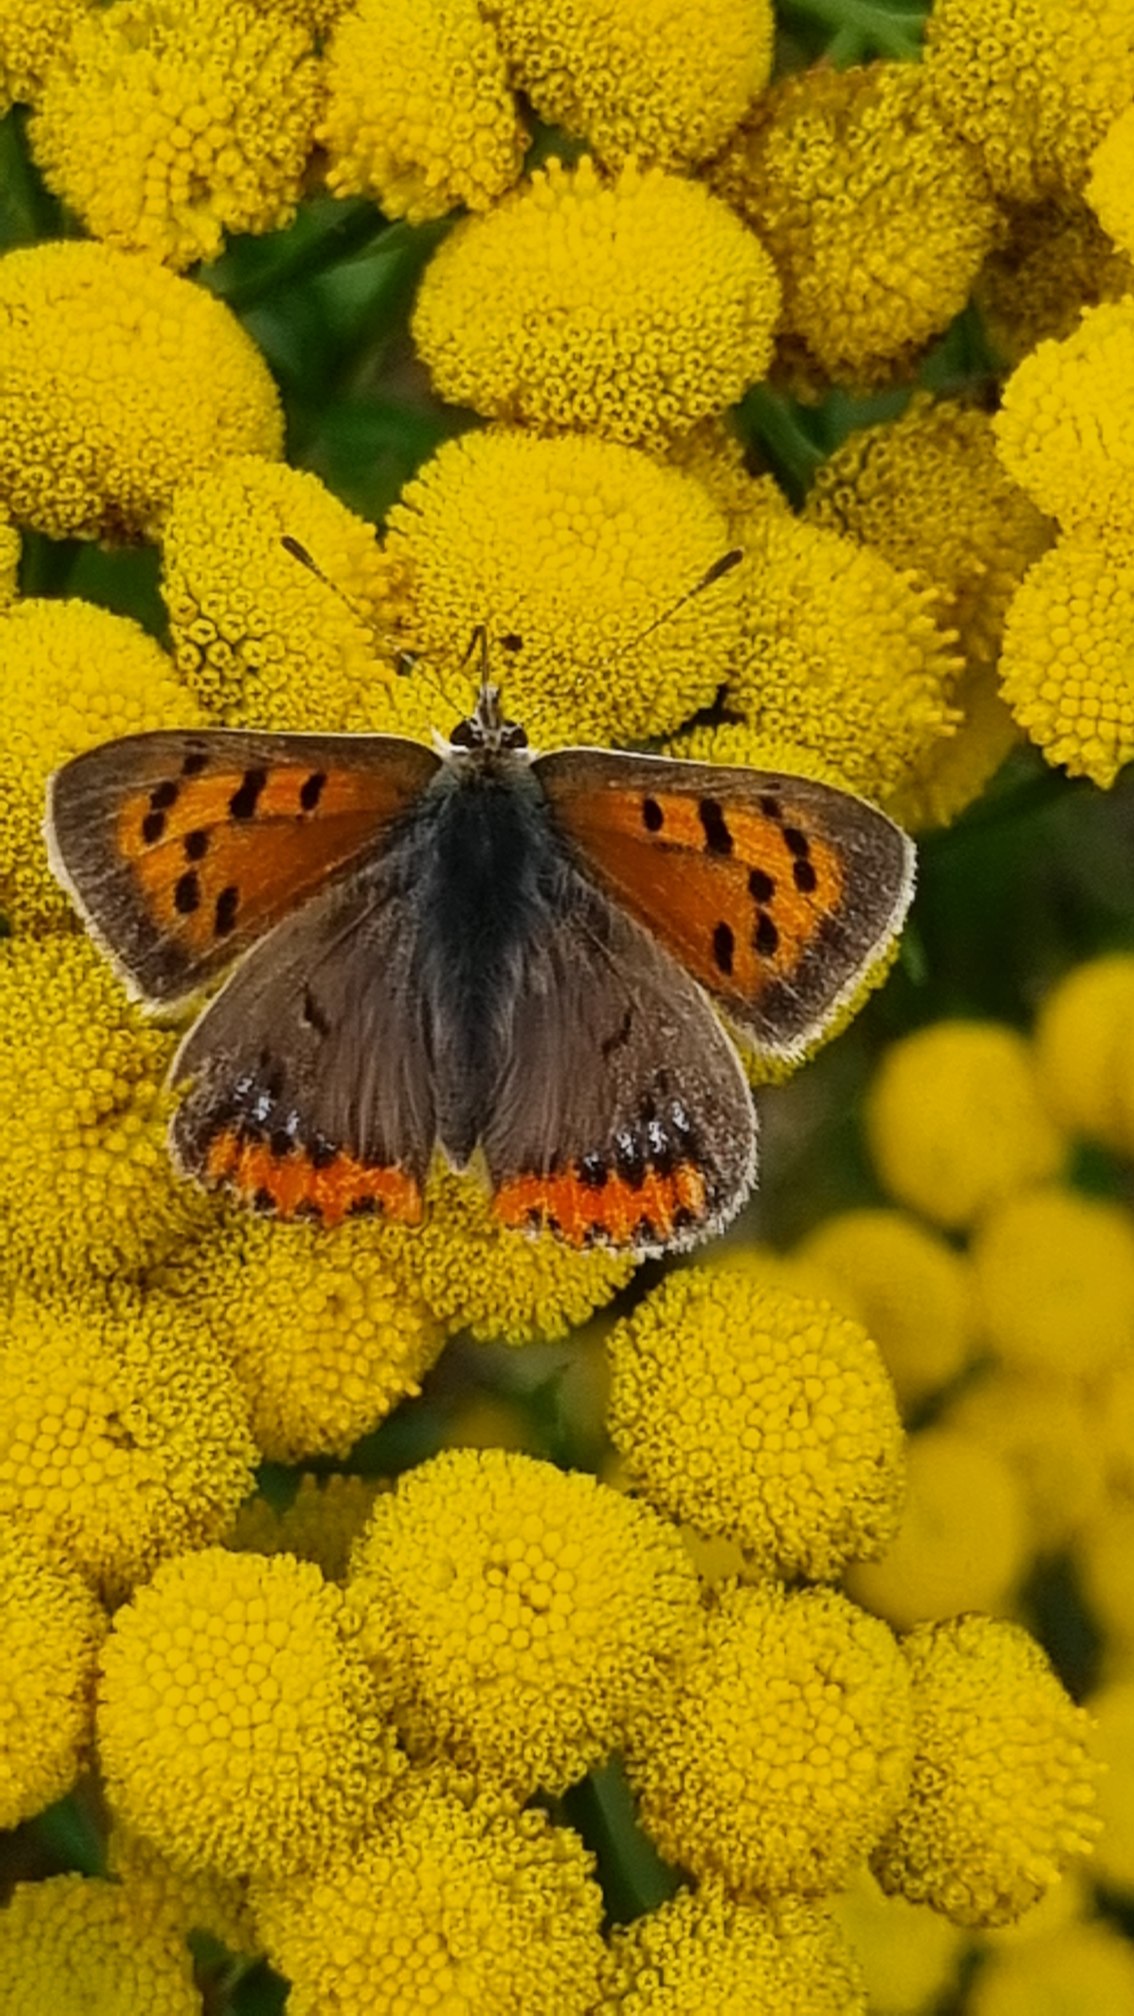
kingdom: Animalia
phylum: Arthropoda
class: Insecta
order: Lepidoptera
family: Lycaenidae
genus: Lycaena
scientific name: Lycaena phlaeas
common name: Lille ildfugl
